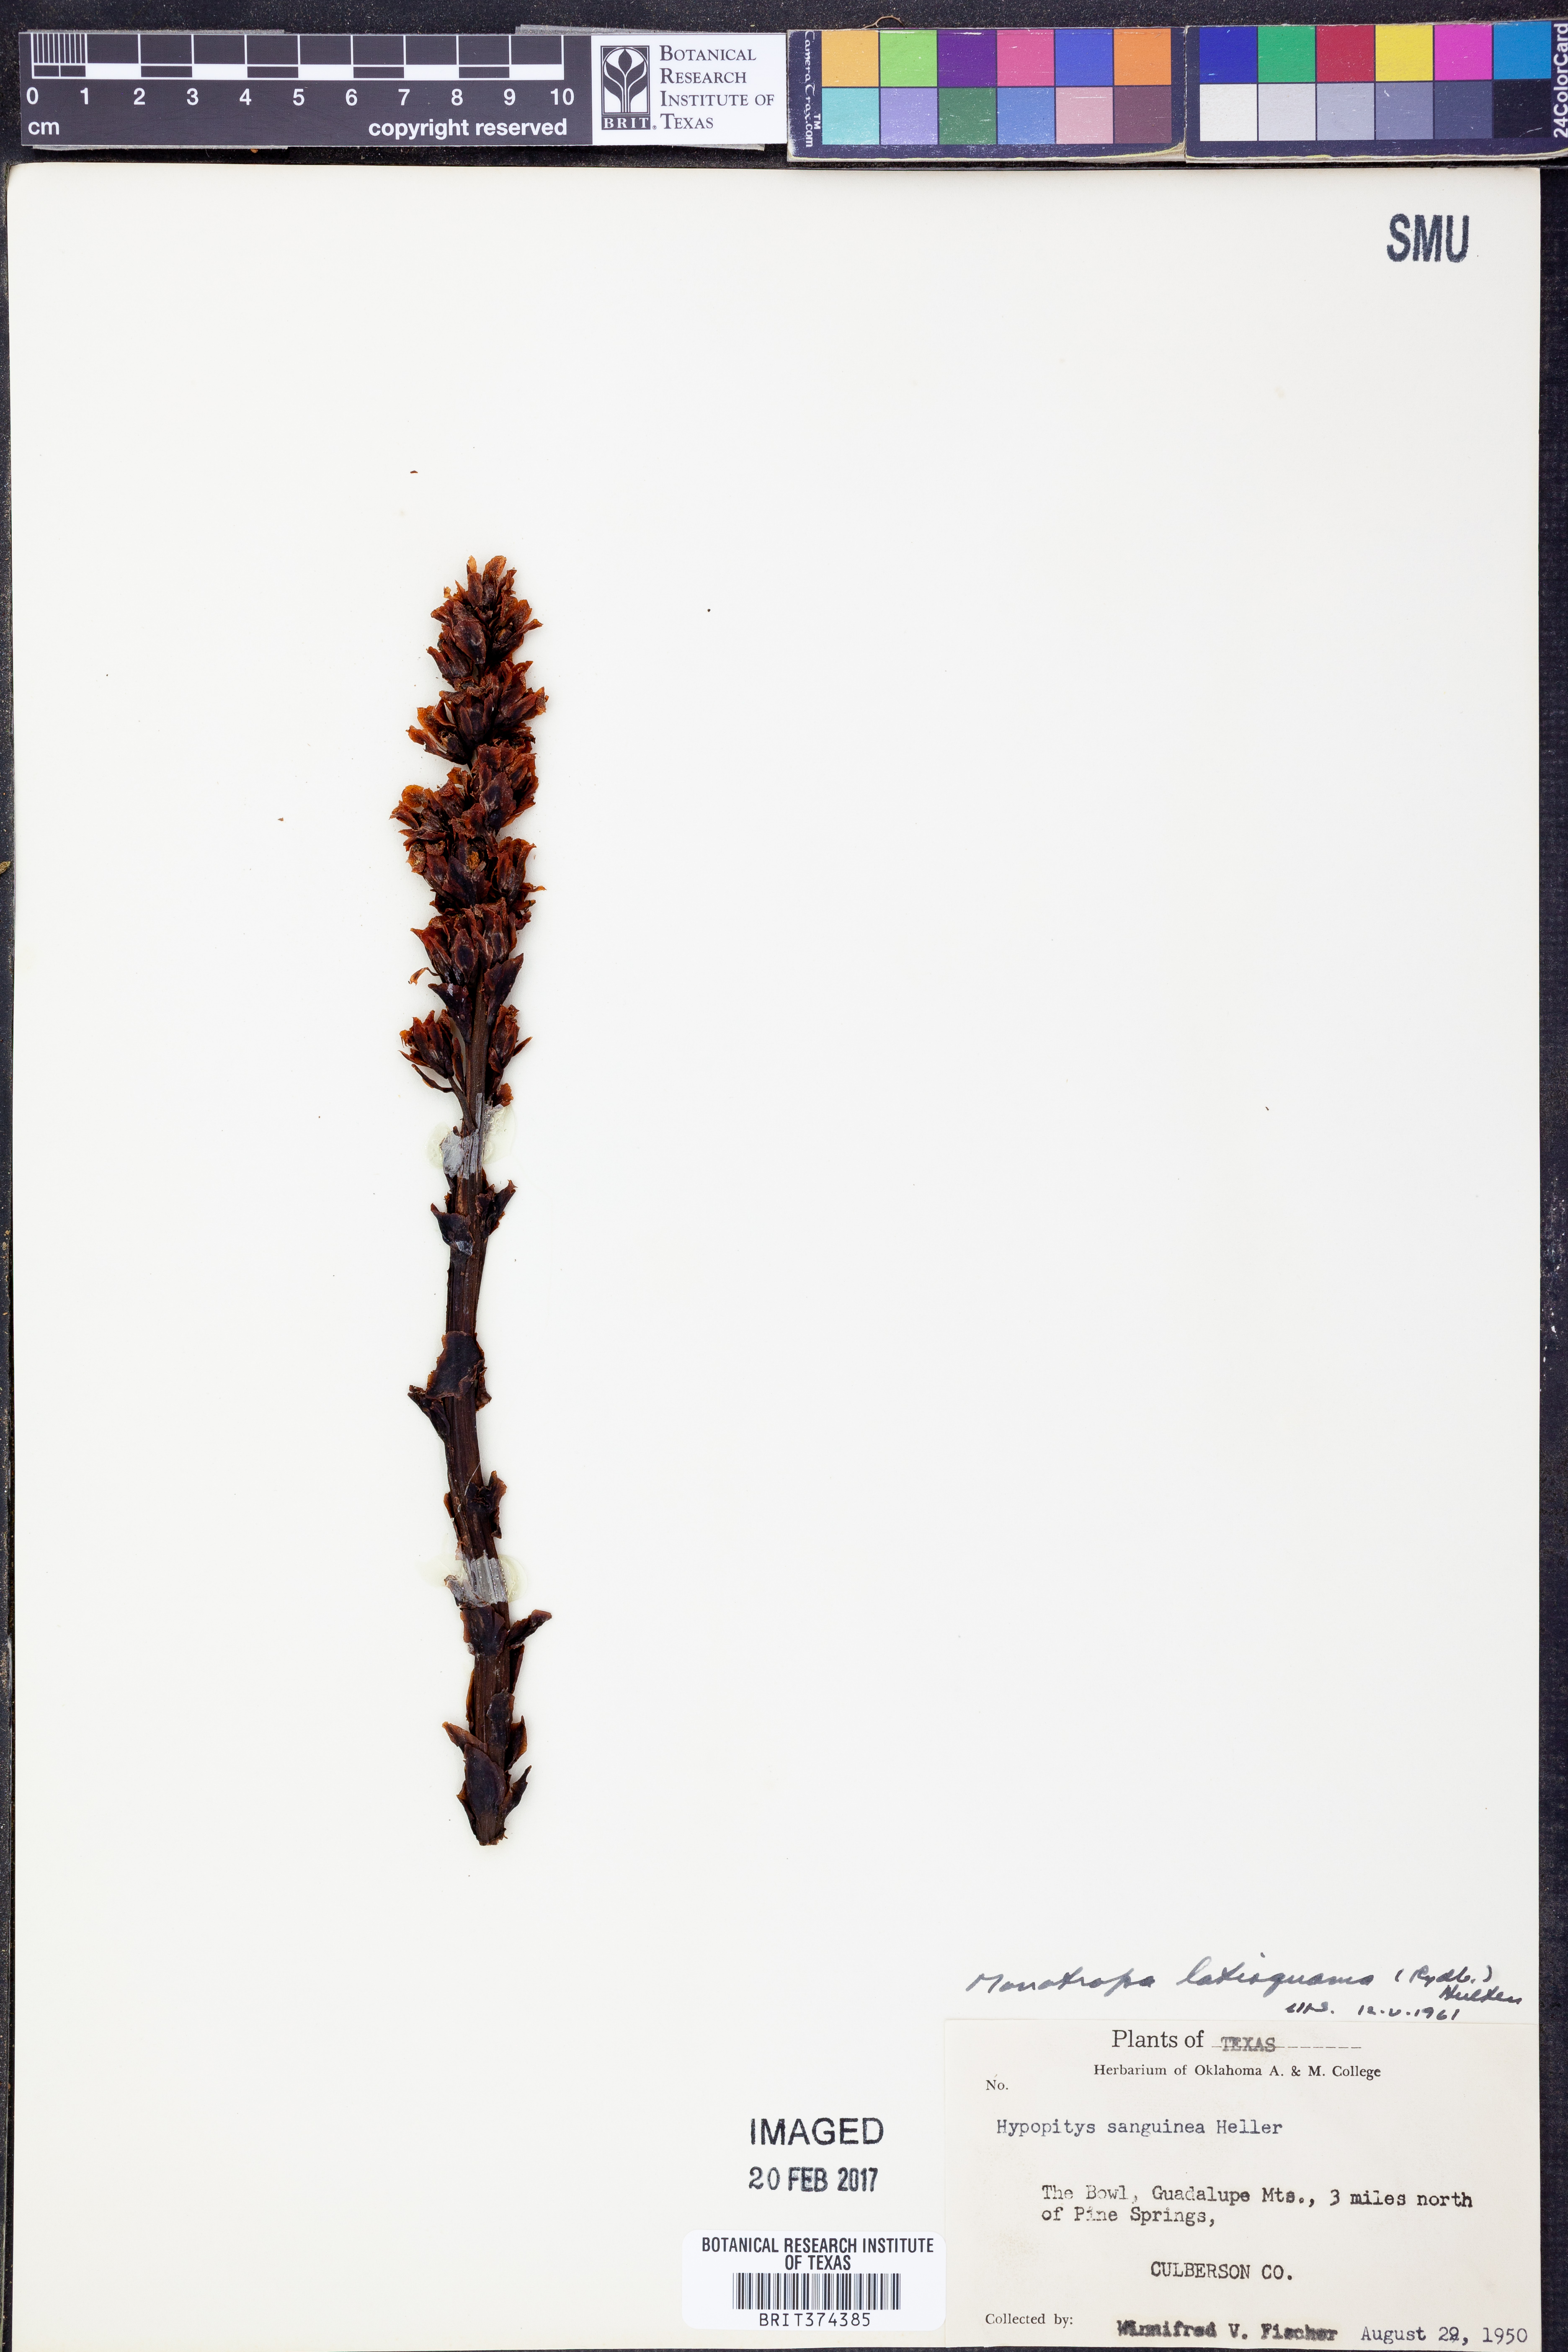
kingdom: Plantae
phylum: Tracheophyta
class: Magnoliopsida
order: Ericales
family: Ericaceae
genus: Hypopitys
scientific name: Hypopitys monotropa
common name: Yellow bird's-nest
